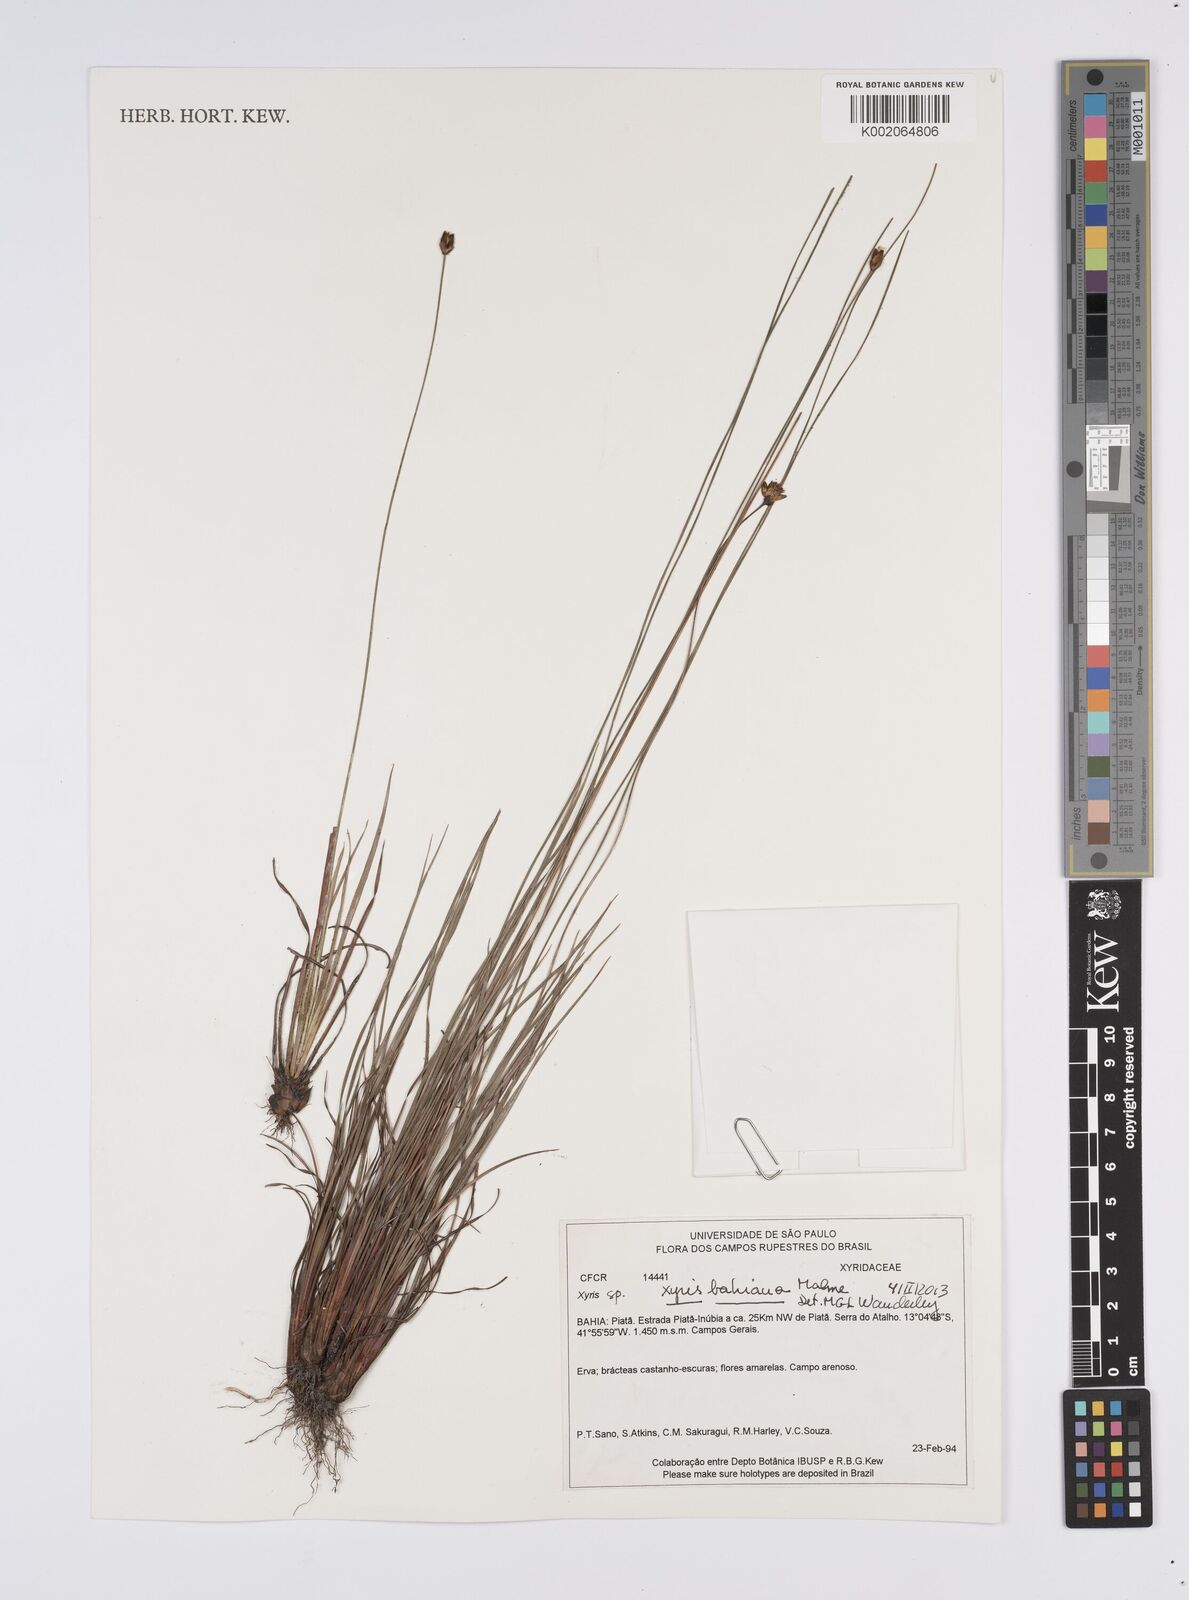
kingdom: Plantae
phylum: Tracheophyta
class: Liliopsida
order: Poales
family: Xyridaceae
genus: Xyris
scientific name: Xyris bahiana
